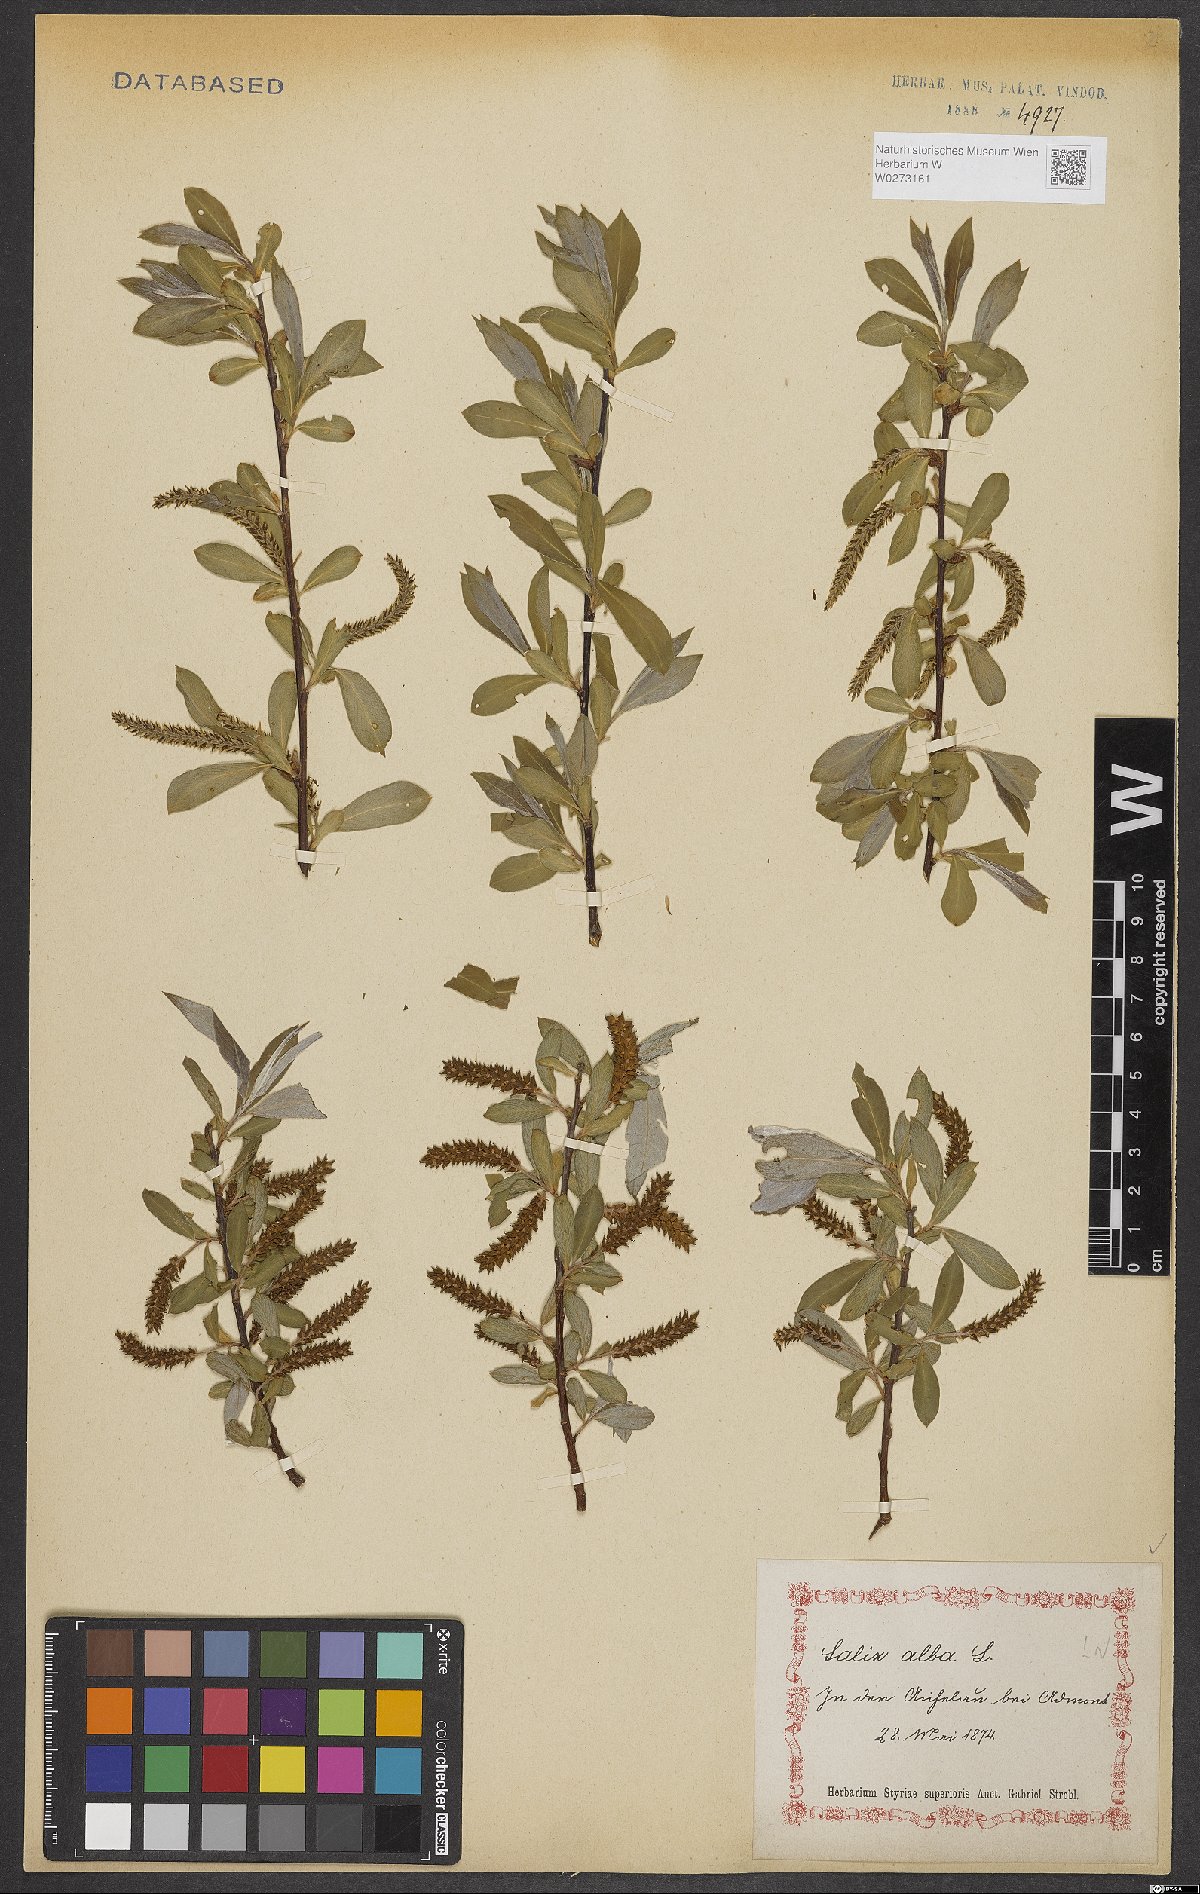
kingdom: Plantae
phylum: Tracheophyta
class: Magnoliopsida
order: Malpighiales
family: Salicaceae
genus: Salix
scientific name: Salix alba
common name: White willow
